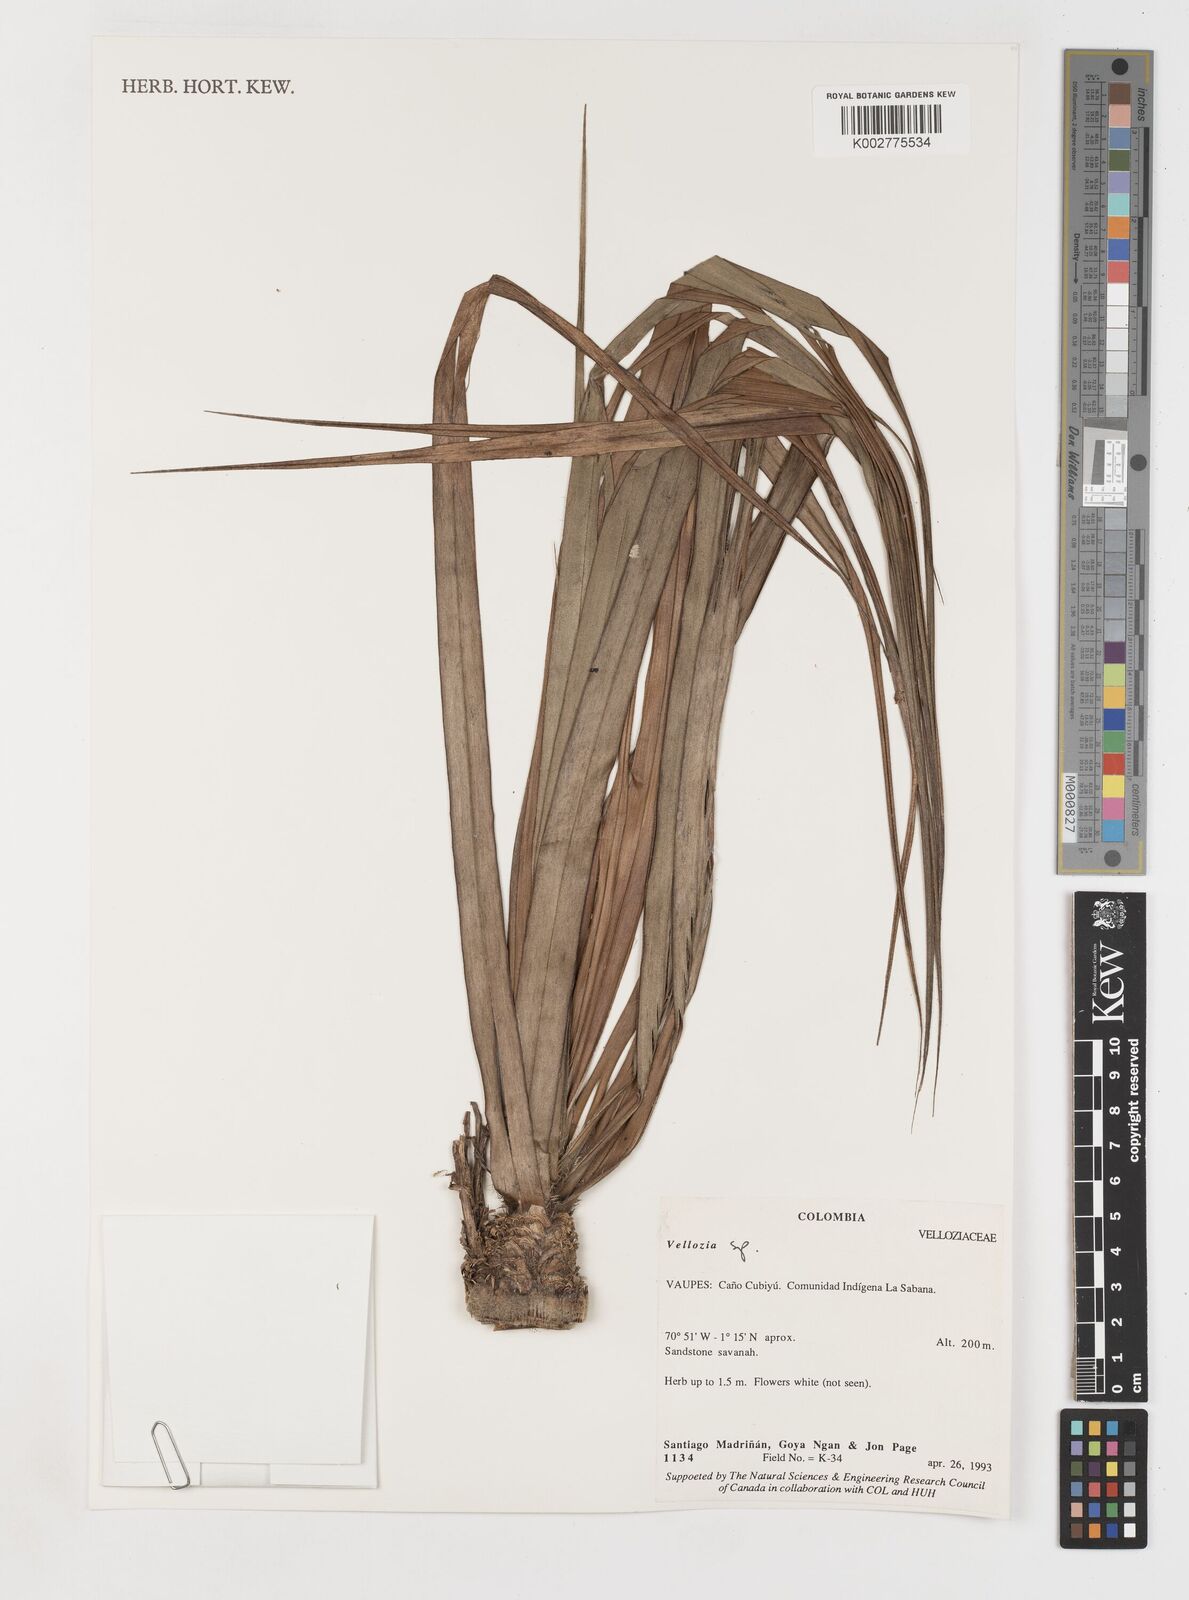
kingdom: Plantae
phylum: Tracheophyta
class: Liliopsida
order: Pandanales
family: Velloziaceae
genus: Vellozia
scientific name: Vellozia
